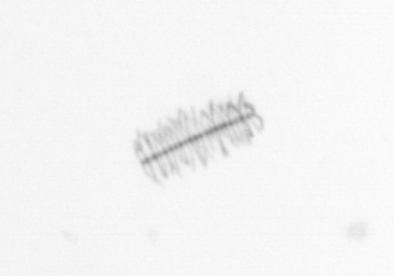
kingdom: Chromista
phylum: Ochrophyta
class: Bacillariophyceae
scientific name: Bacillariophyceae
